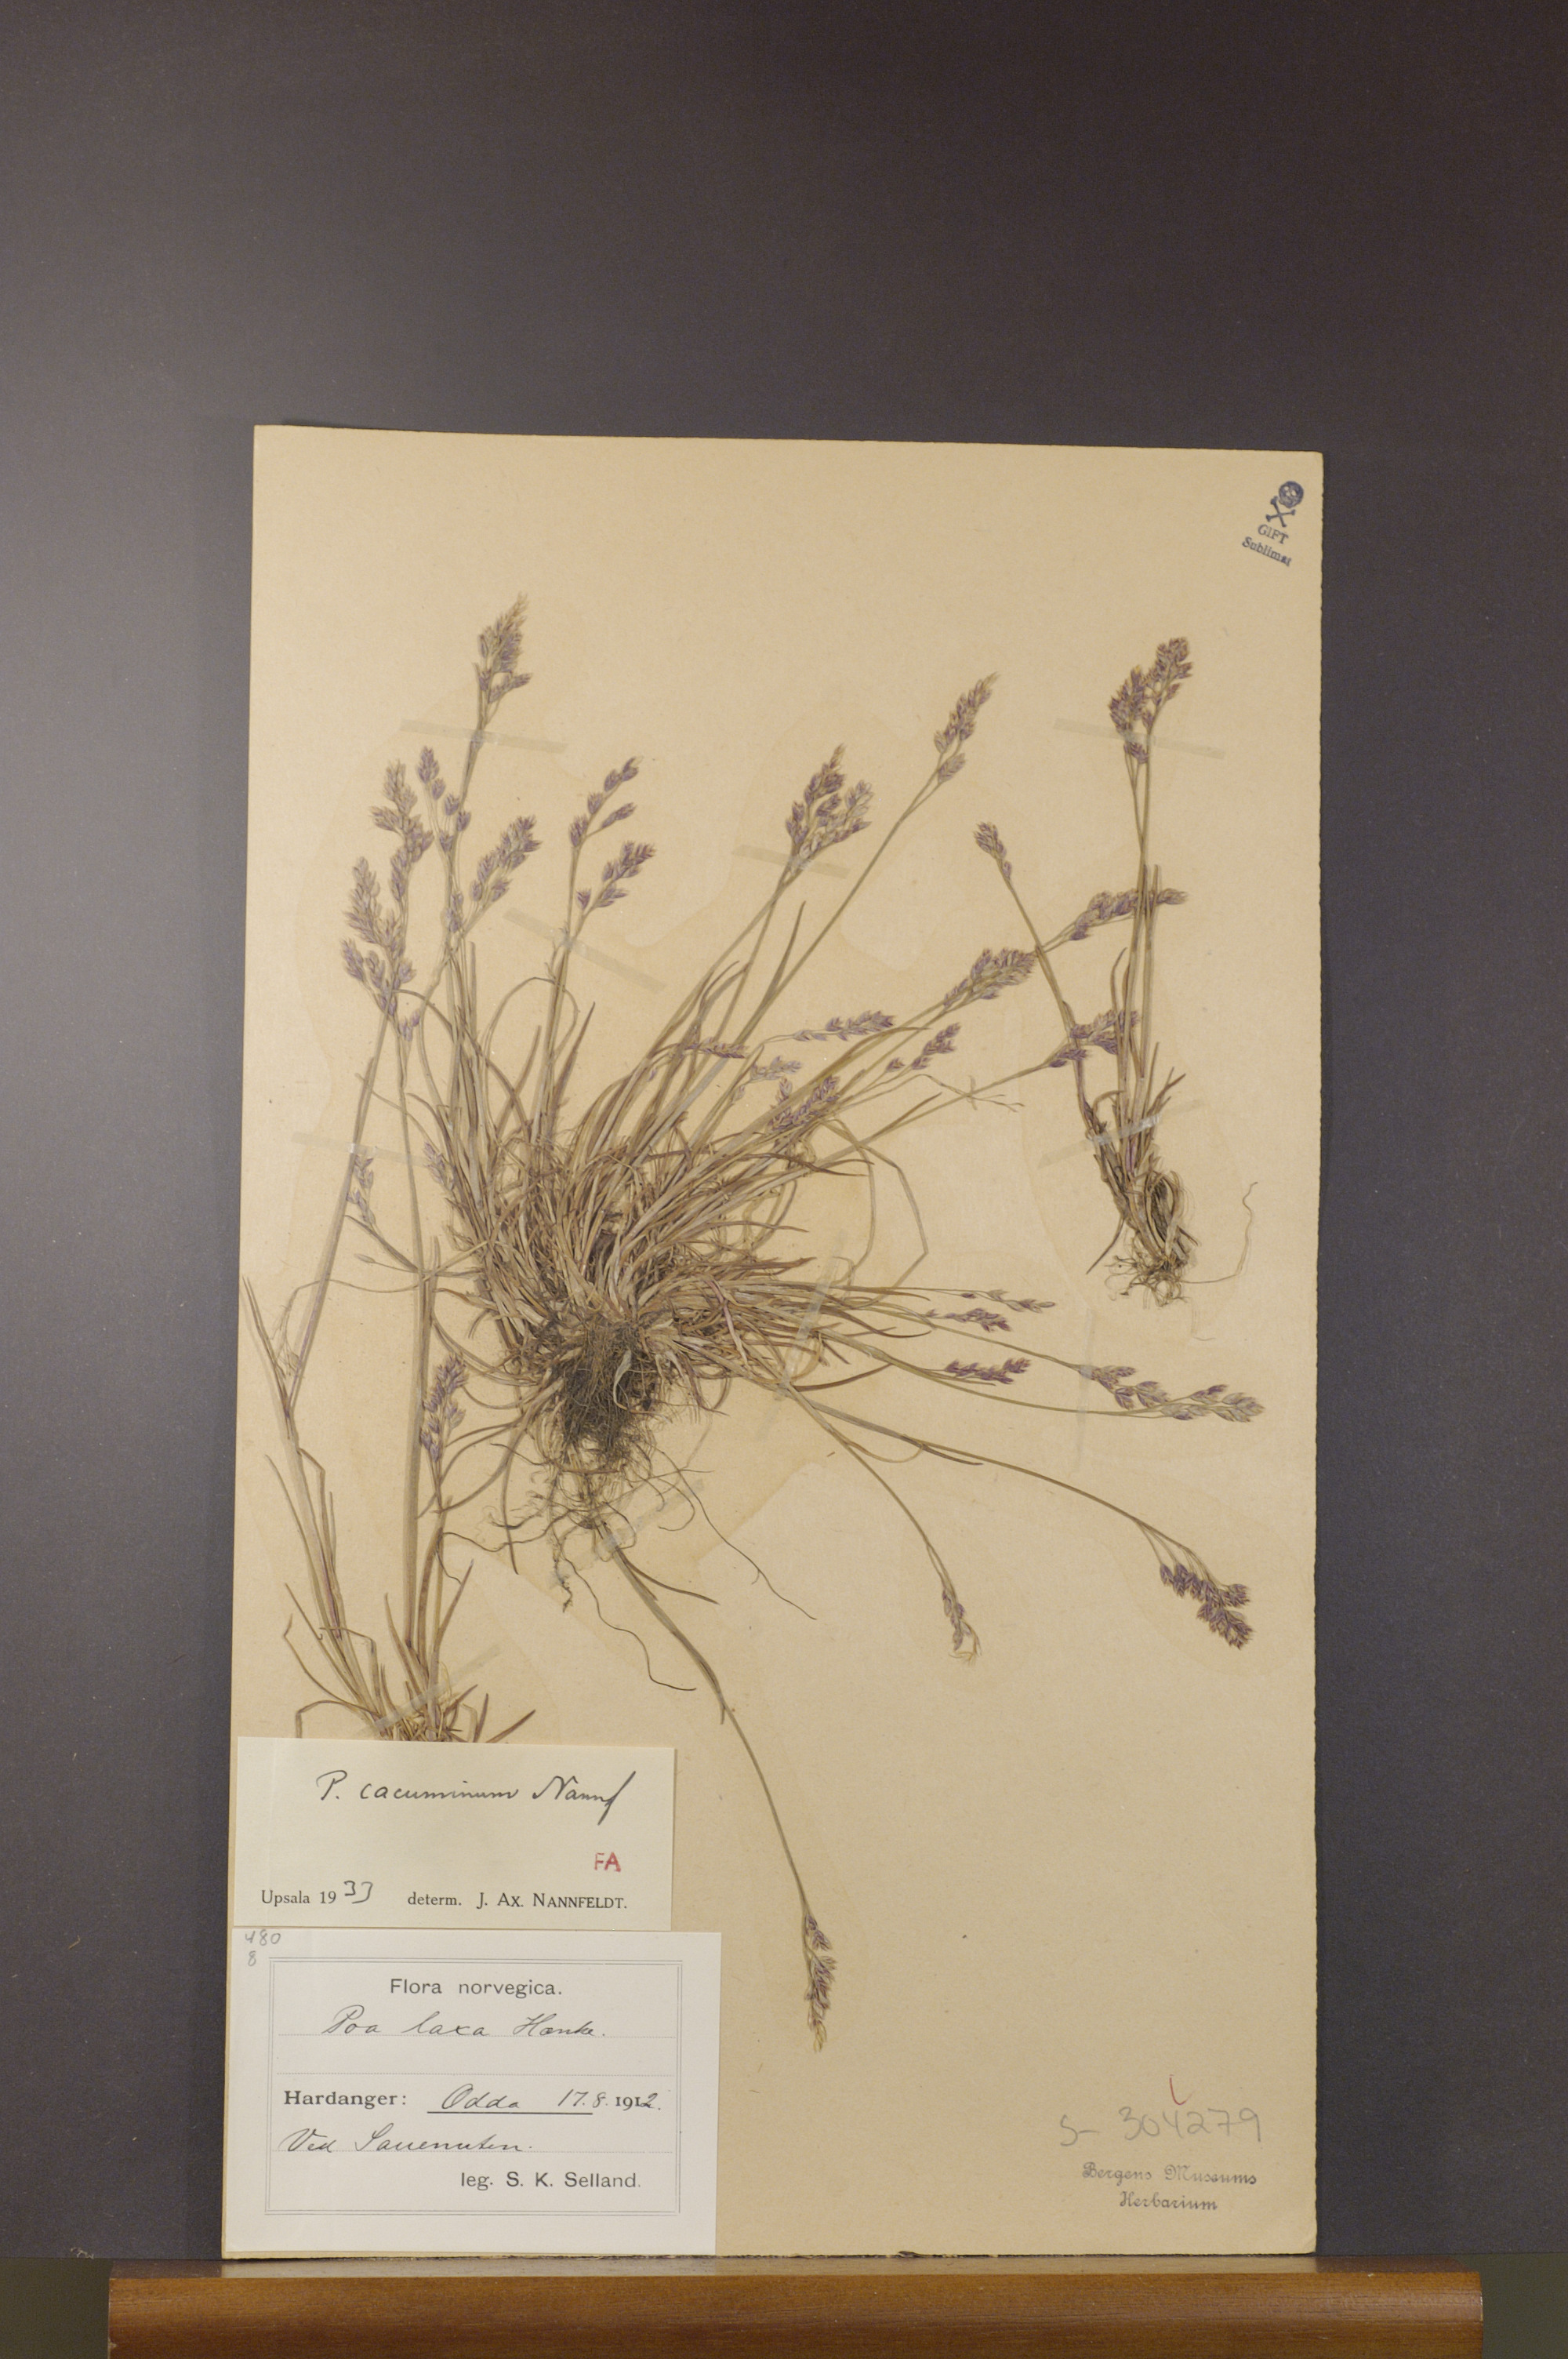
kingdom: Plantae
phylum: Tracheophyta
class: Liliopsida
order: Poales
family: Poaceae
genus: Poa
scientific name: Poa flexuosa
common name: Wavy meadow-grass
